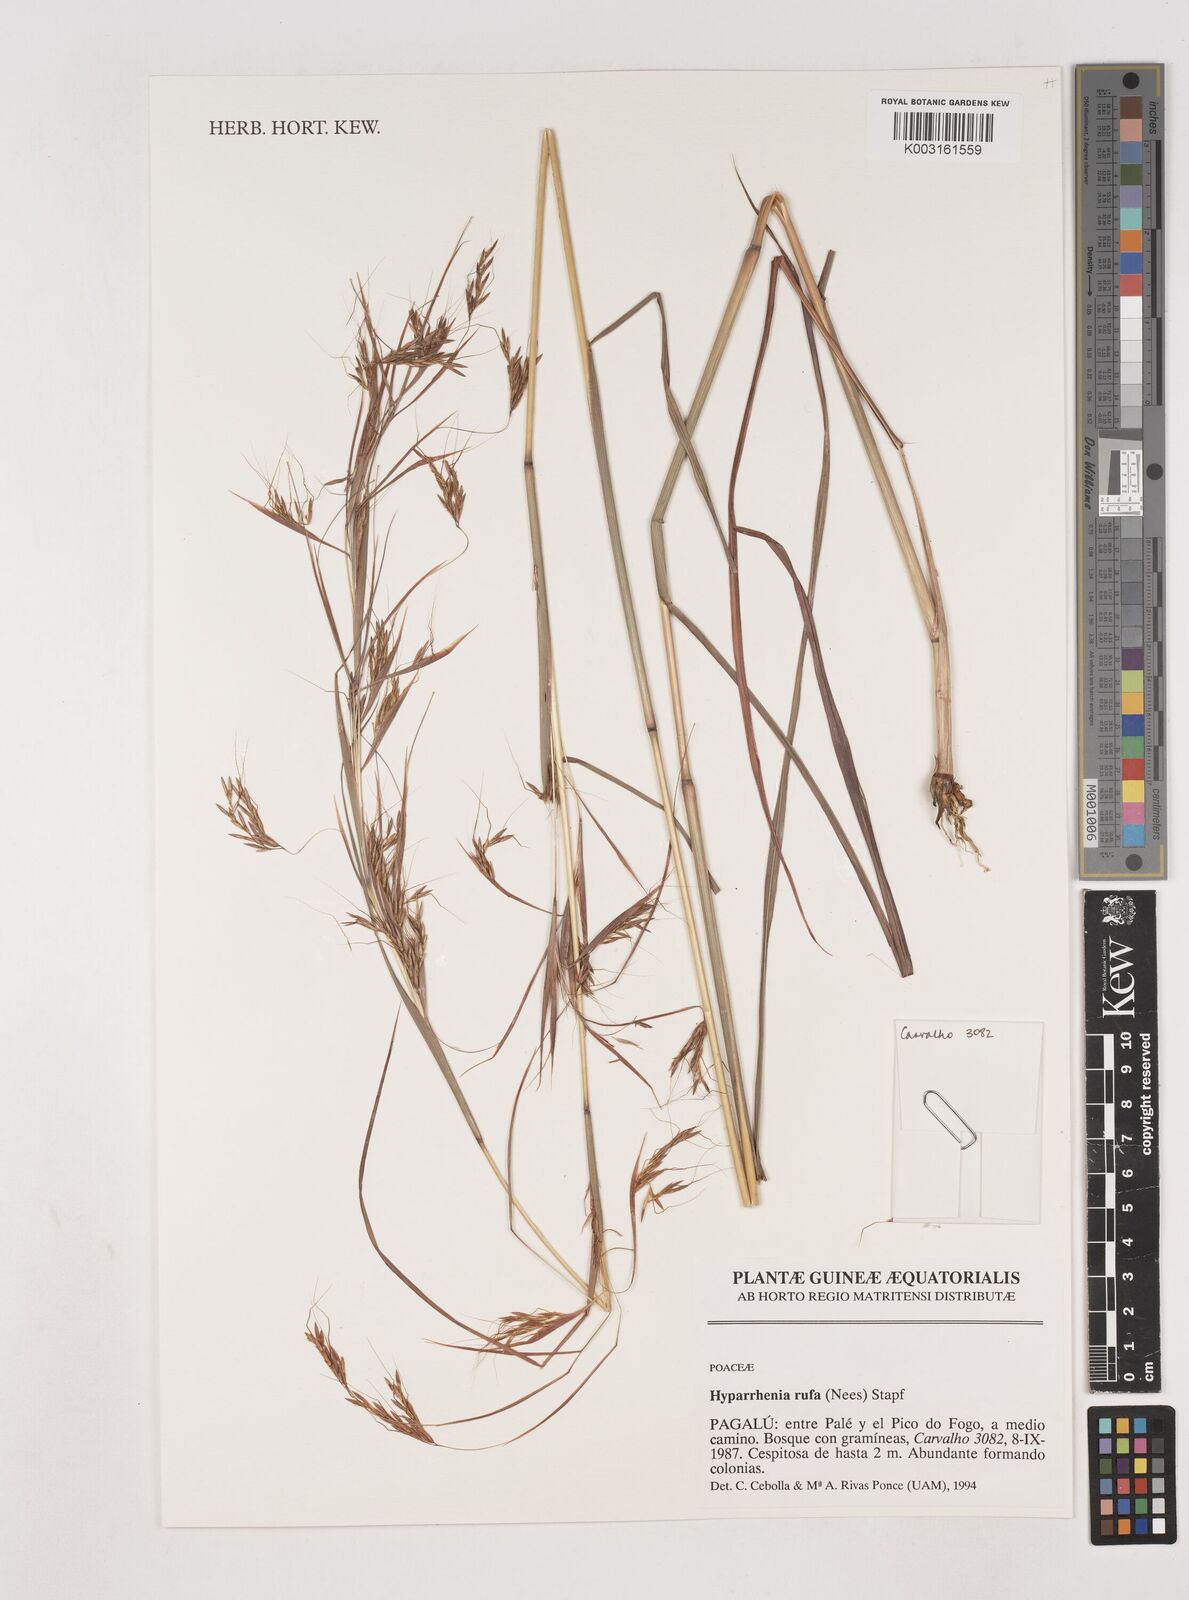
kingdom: Plantae
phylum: Tracheophyta
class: Liliopsida
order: Poales
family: Poaceae
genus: Hyparrhenia
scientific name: Hyparrhenia rufa
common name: Jaraguagrass
